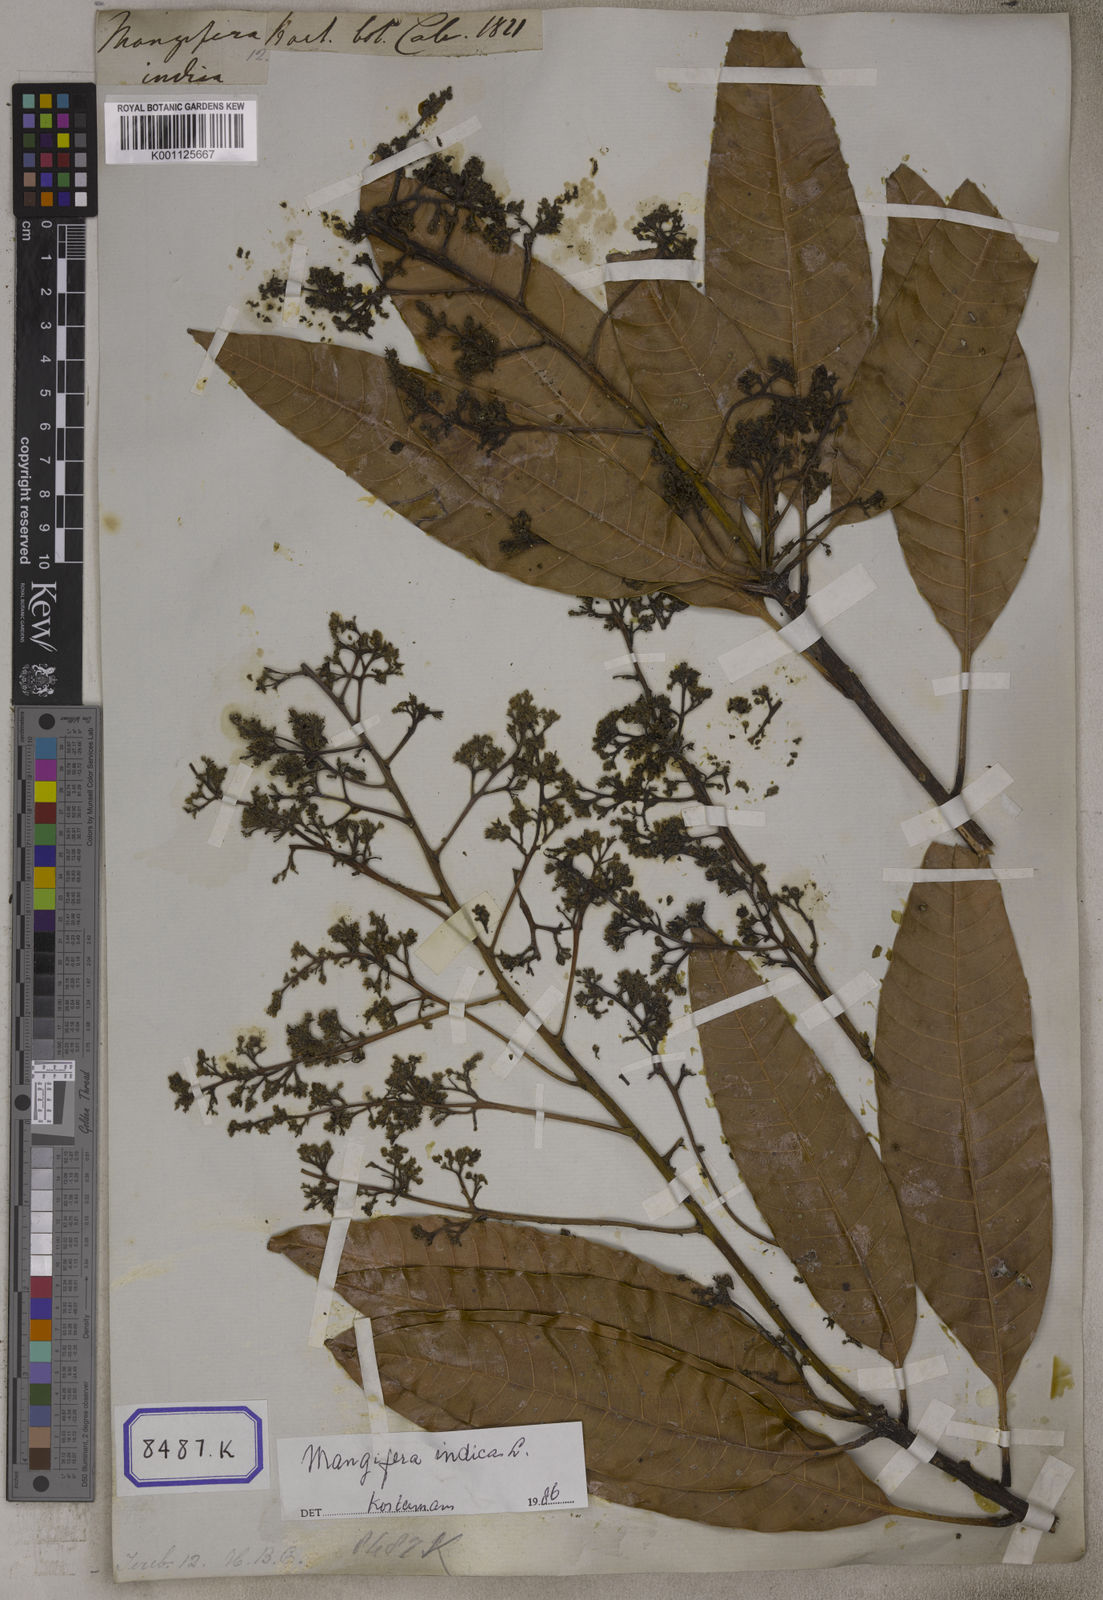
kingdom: Plantae
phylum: Tracheophyta
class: Magnoliopsida
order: Sapindales
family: Anacardiaceae
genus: Mangifera
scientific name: Mangifera indica
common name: Mango
